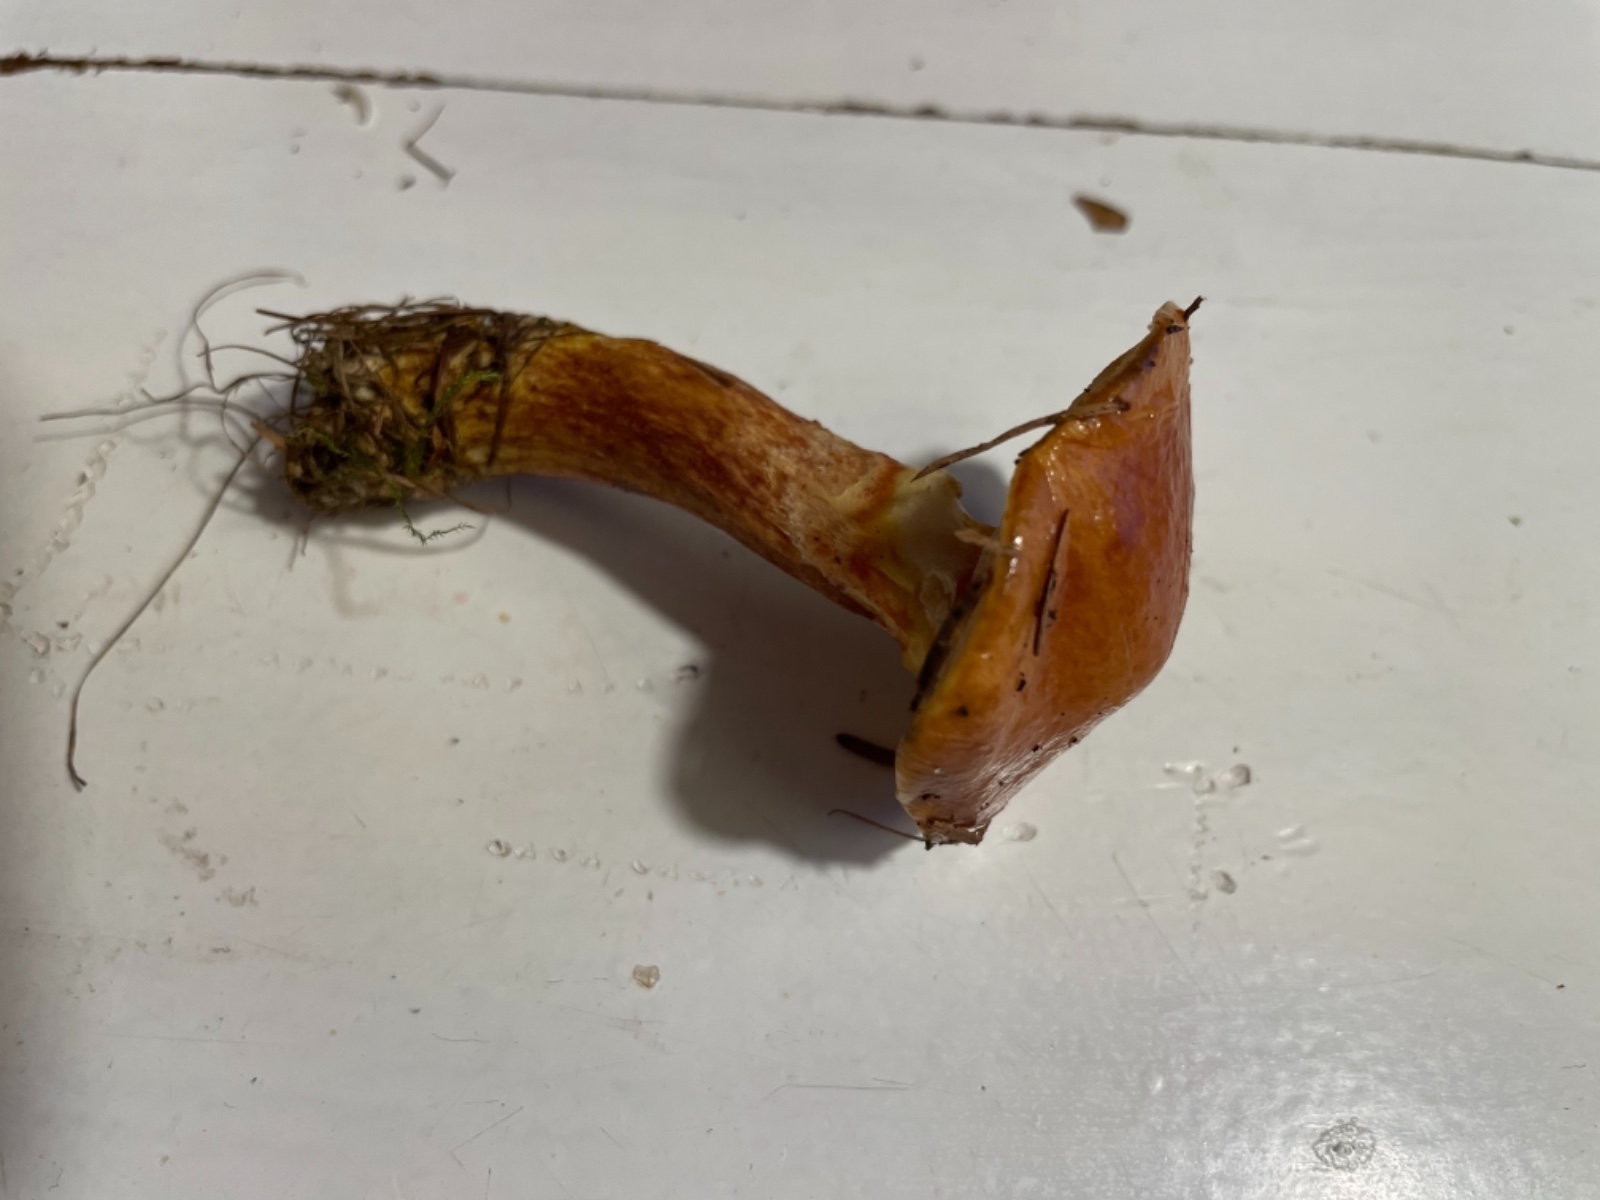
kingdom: Fungi
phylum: Basidiomycota
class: Agaricomycetes
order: Boletales
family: Suillaceae
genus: Suillus
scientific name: Suillus grevillei
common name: lærke-slimrørhat
